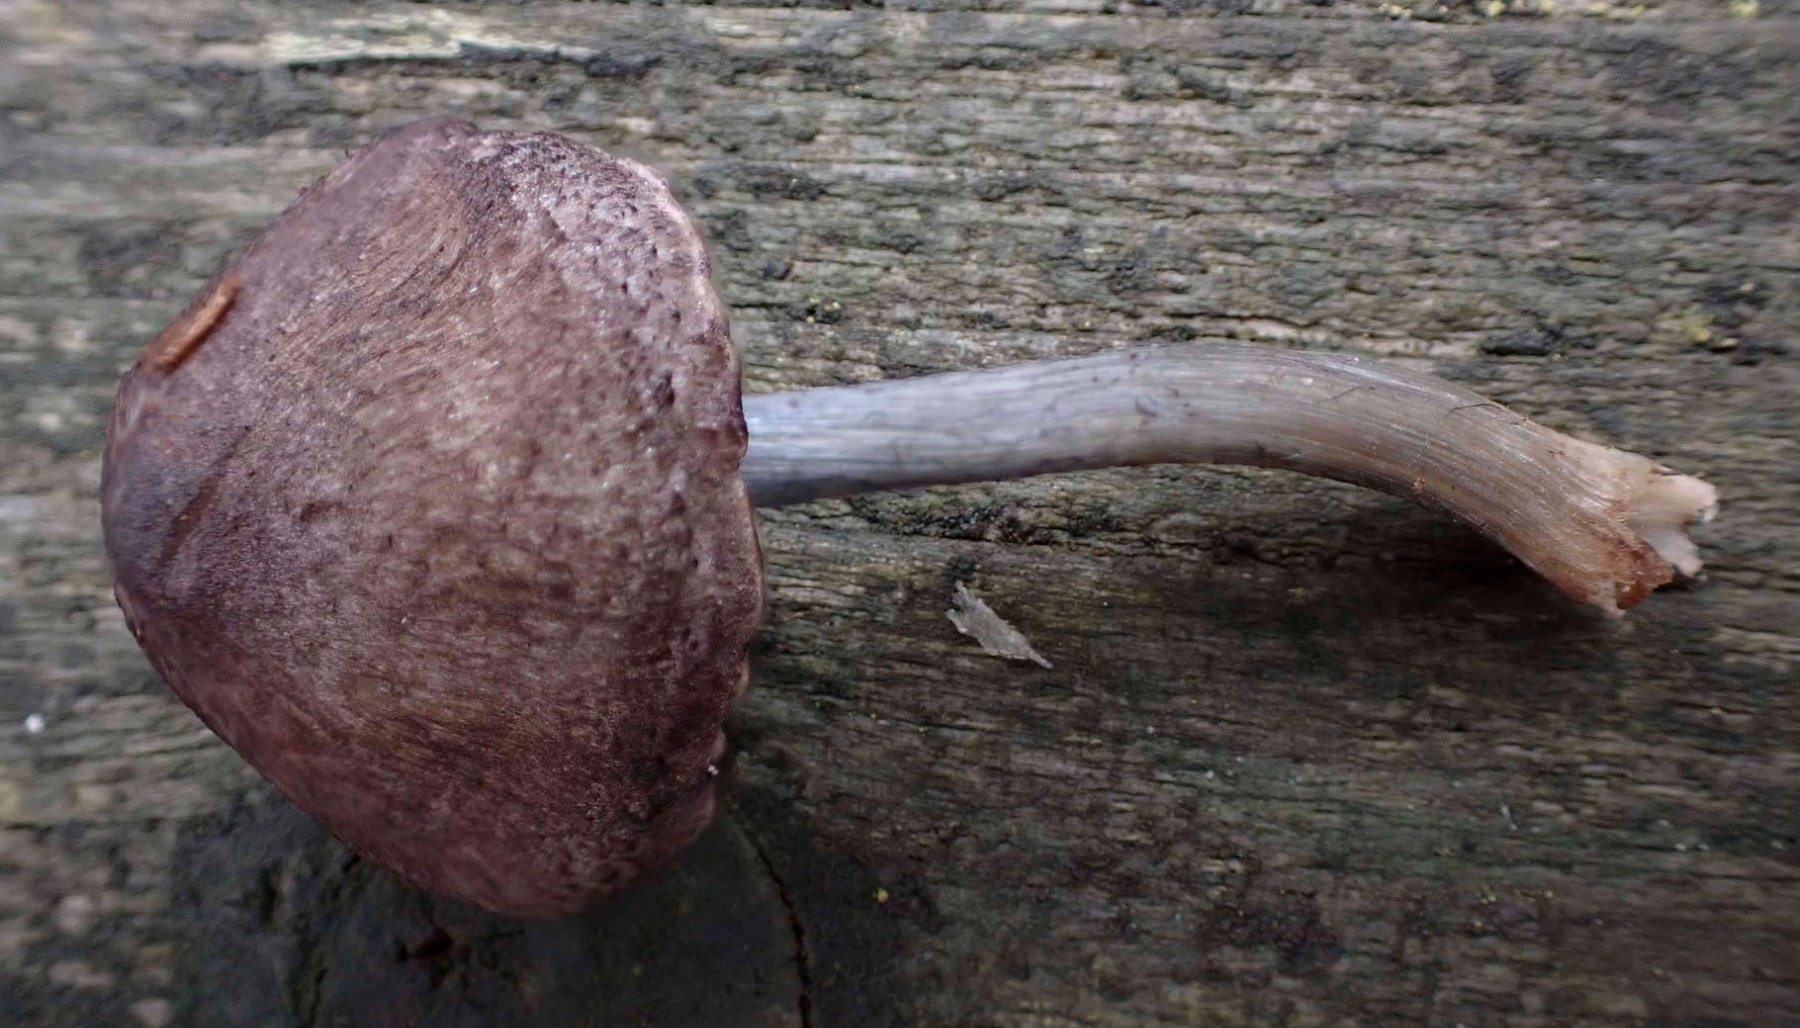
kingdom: Fungi
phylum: Basidiomycota
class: Agaricomycetes
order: Agaricales
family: Entolomataceae
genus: Entoloma
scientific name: Entoloma placidum
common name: bøge-rødblad
